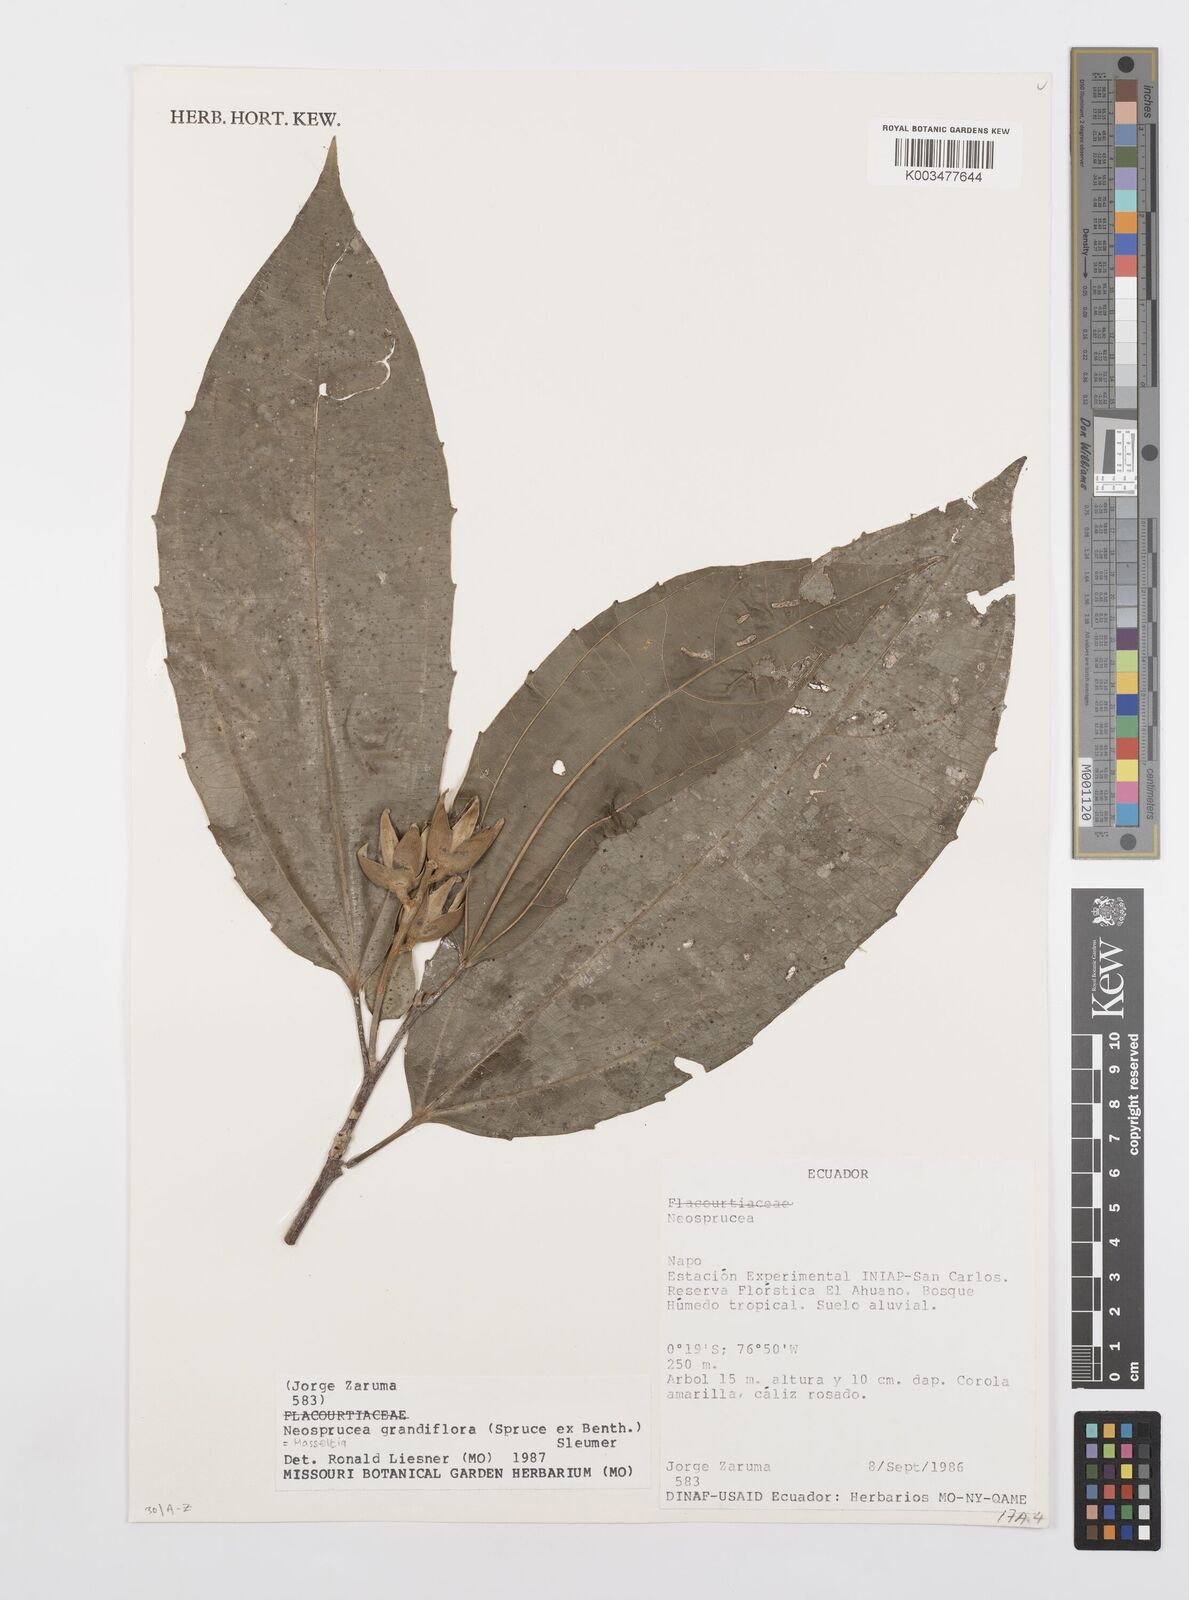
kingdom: Plantae
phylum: Tracheophyta
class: Magnoliopsida
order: Malpighiales
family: Salicaceae
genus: Neosprucea
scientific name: Neosprucea grandiflora
